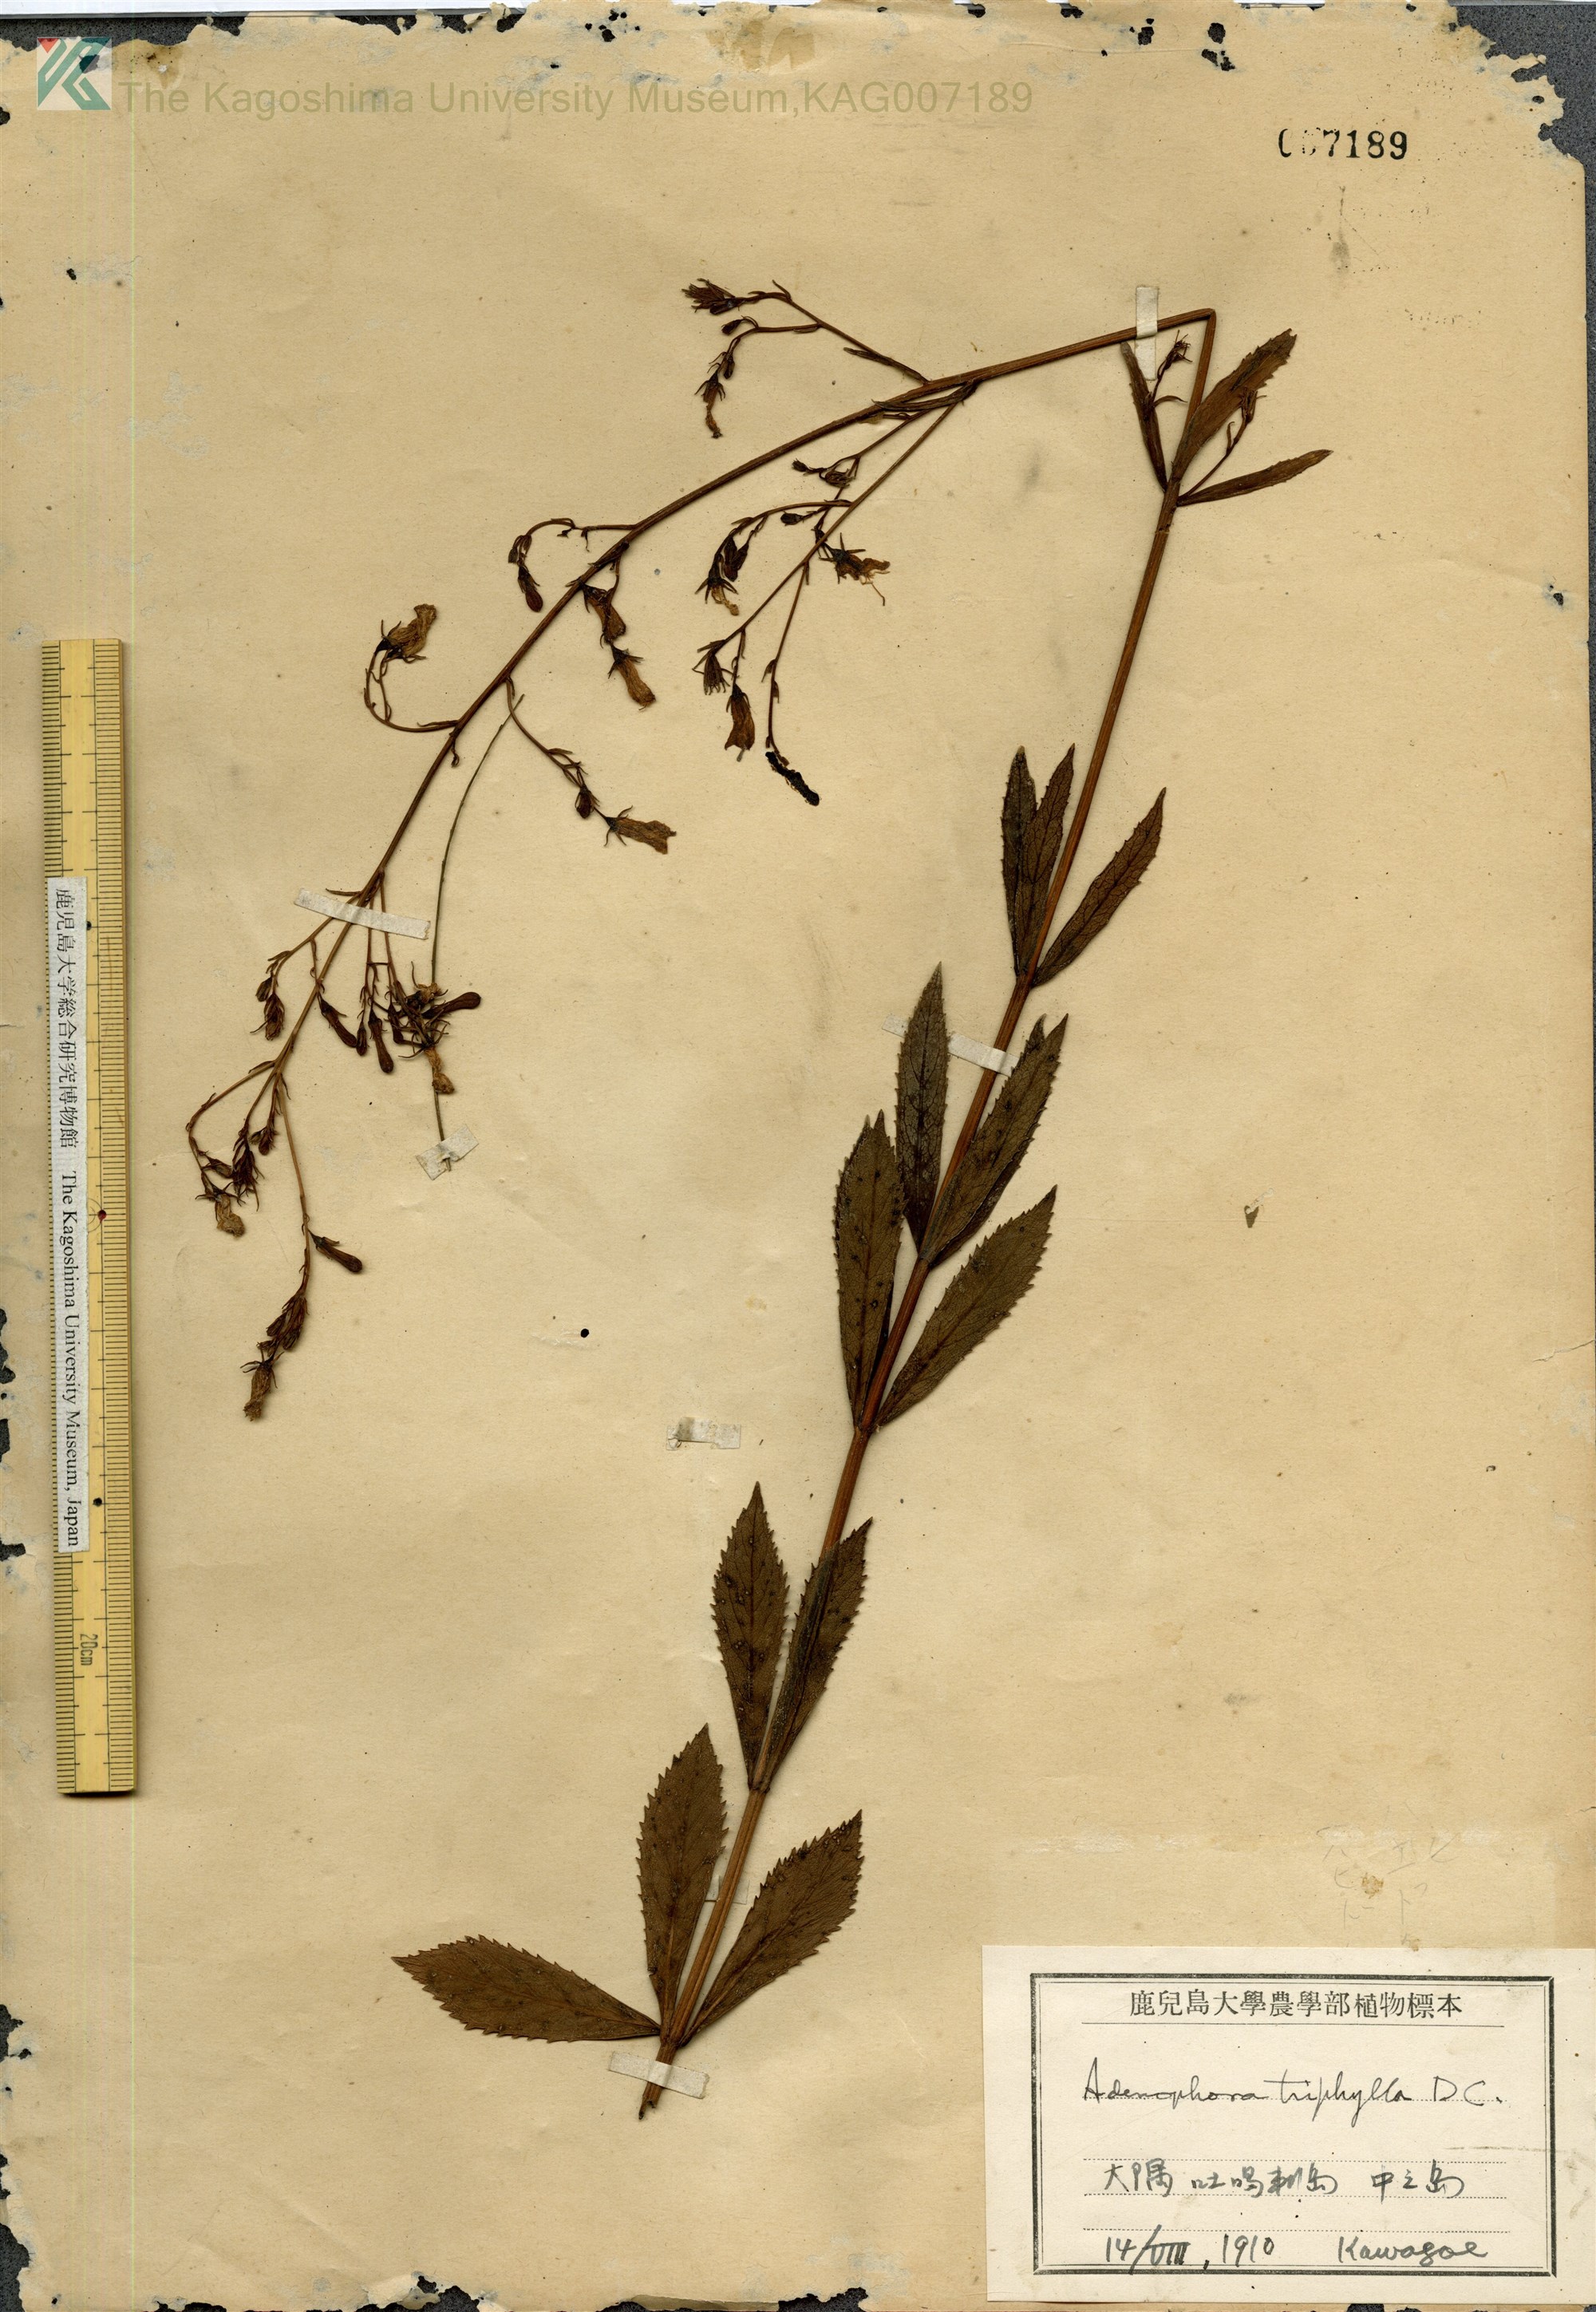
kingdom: Plantae
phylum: Tracheophyta
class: Magnoliopsida
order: Asterales
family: Campanulaceae
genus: Adenophora
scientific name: Adenophora tashiroi
